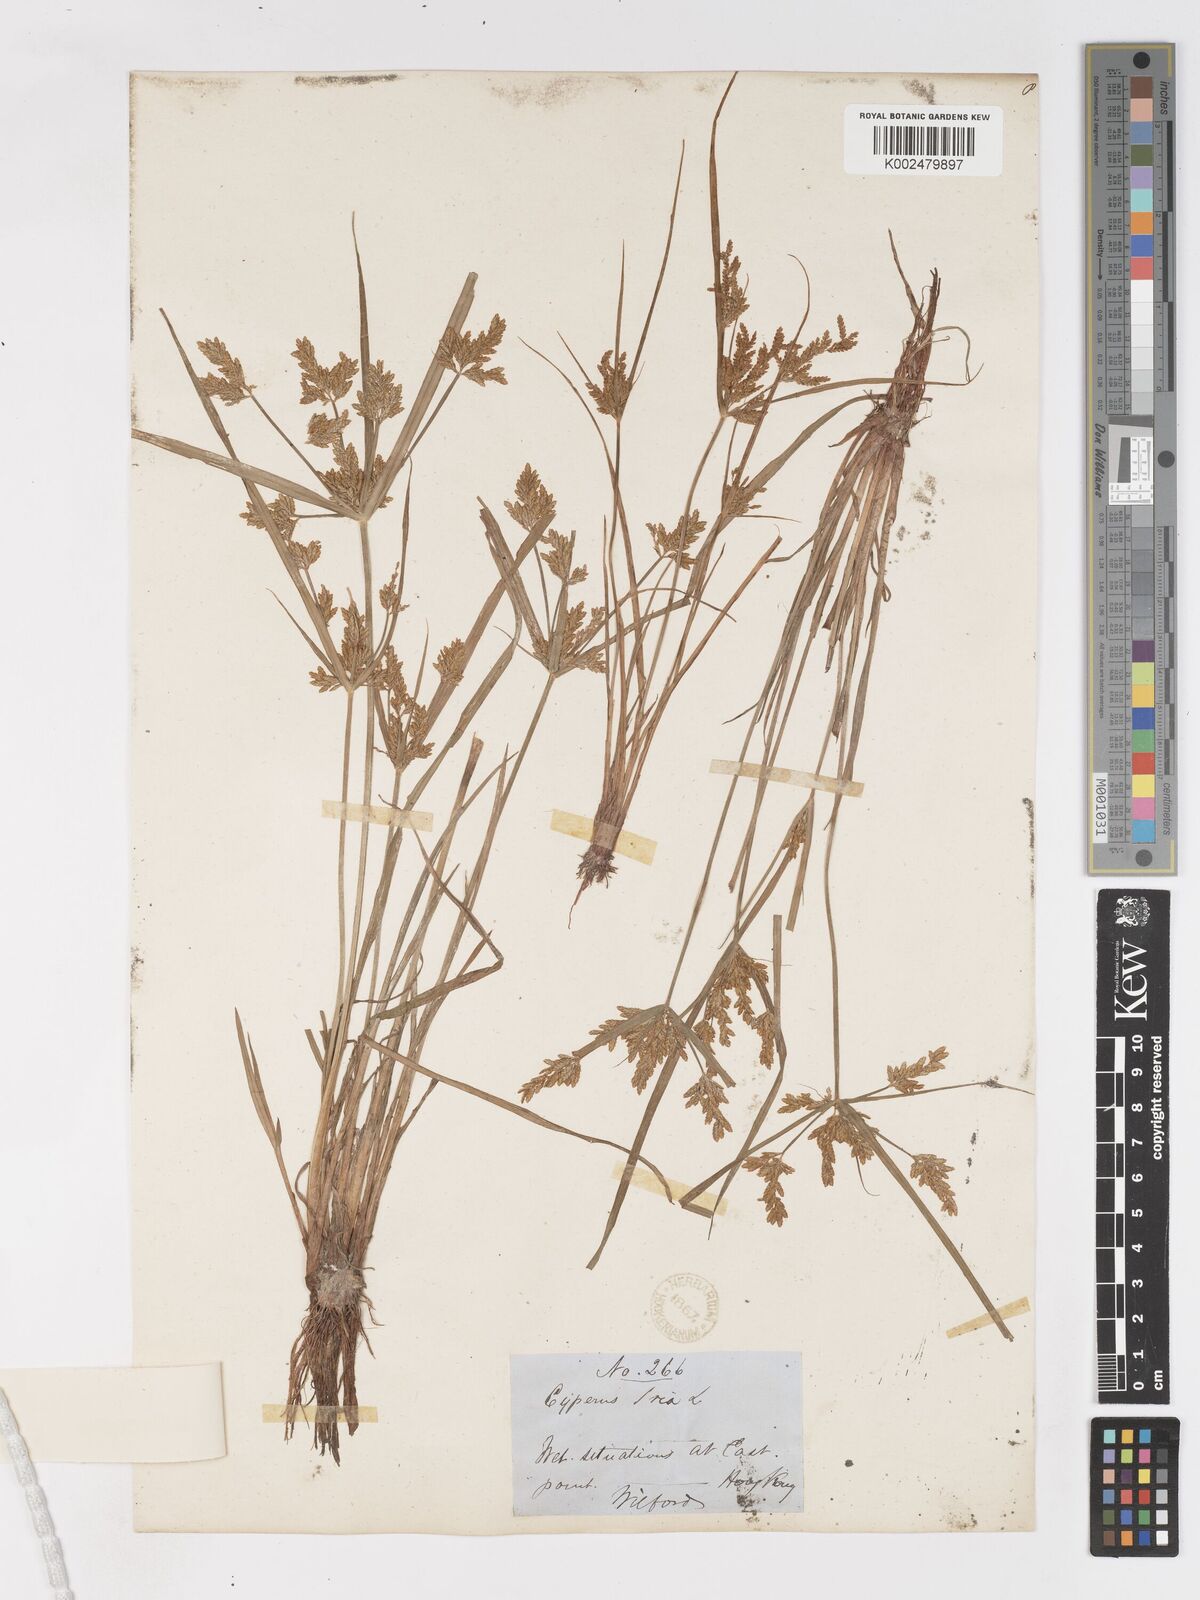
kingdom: Plantae
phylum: Tracheophyta
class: Liliopsida
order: Poales
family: Cyperaceae
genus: Cyperus
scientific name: Cyperus iria
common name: Ricefield flatsedge
